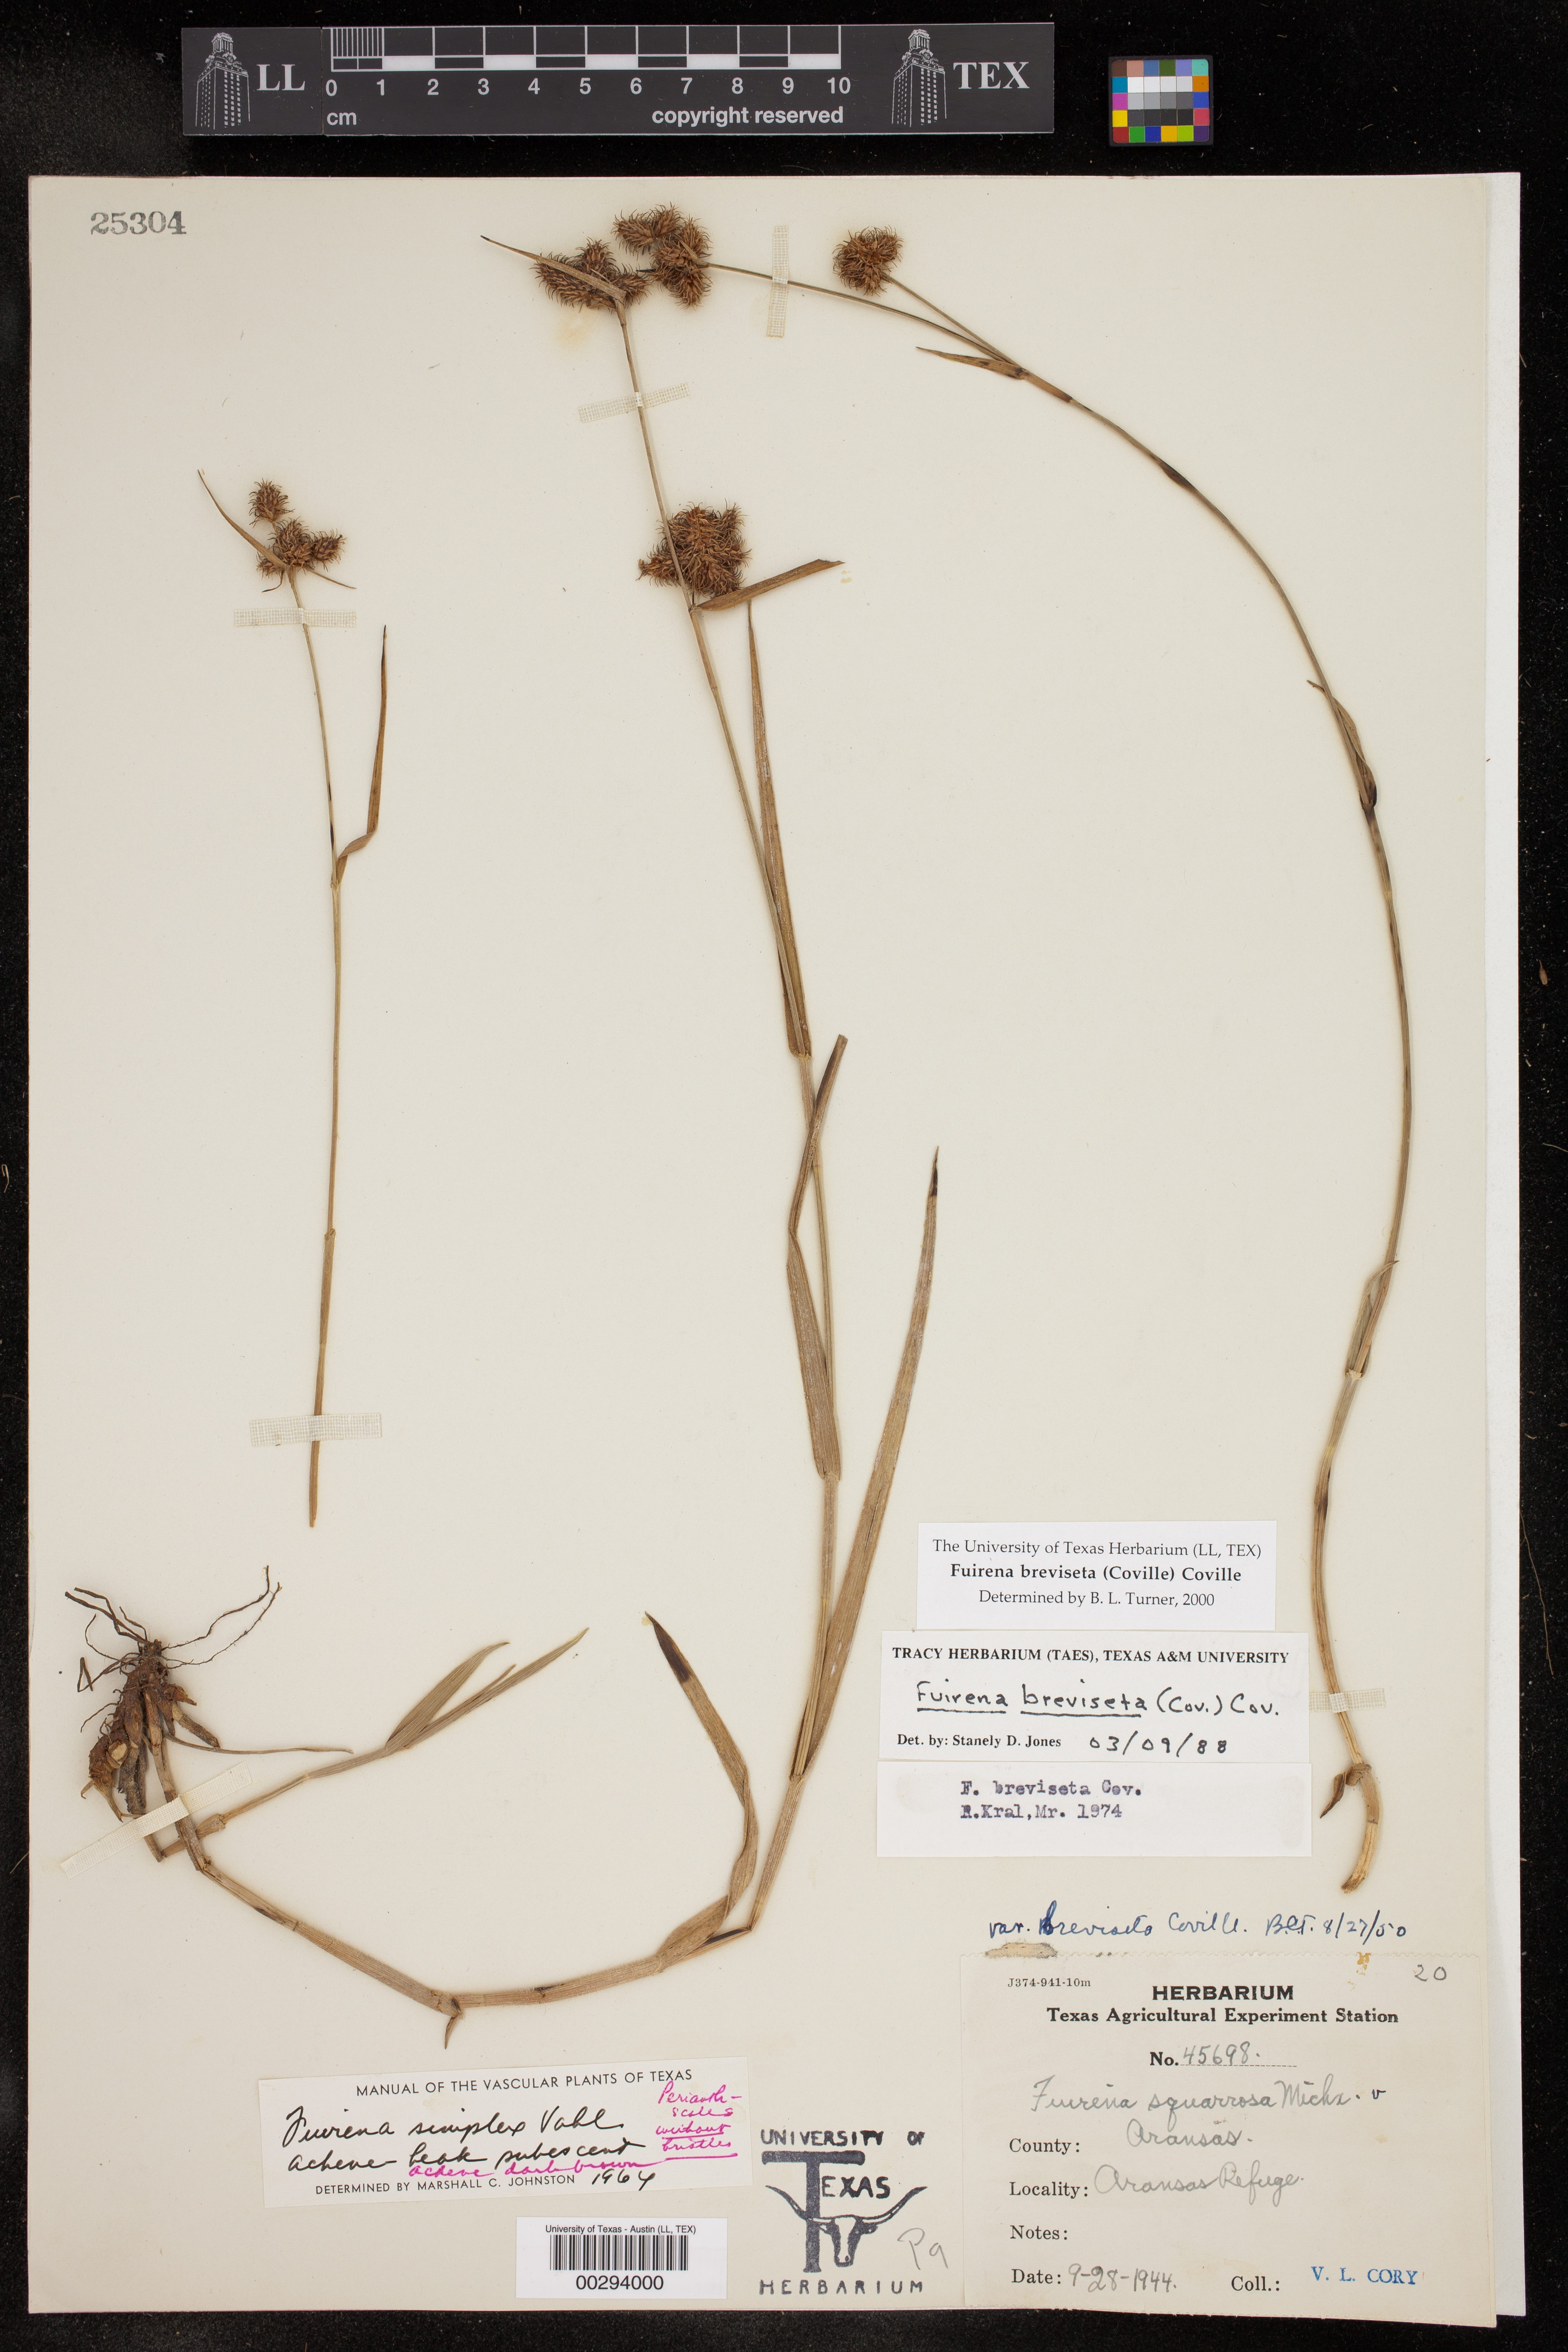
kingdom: Plantae
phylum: Tracheophyta
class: Liliopsida
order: Poales
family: Cyperaceae
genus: Fuirena
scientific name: Fuirena breviseta
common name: Saltmarsh umbrella sedge
